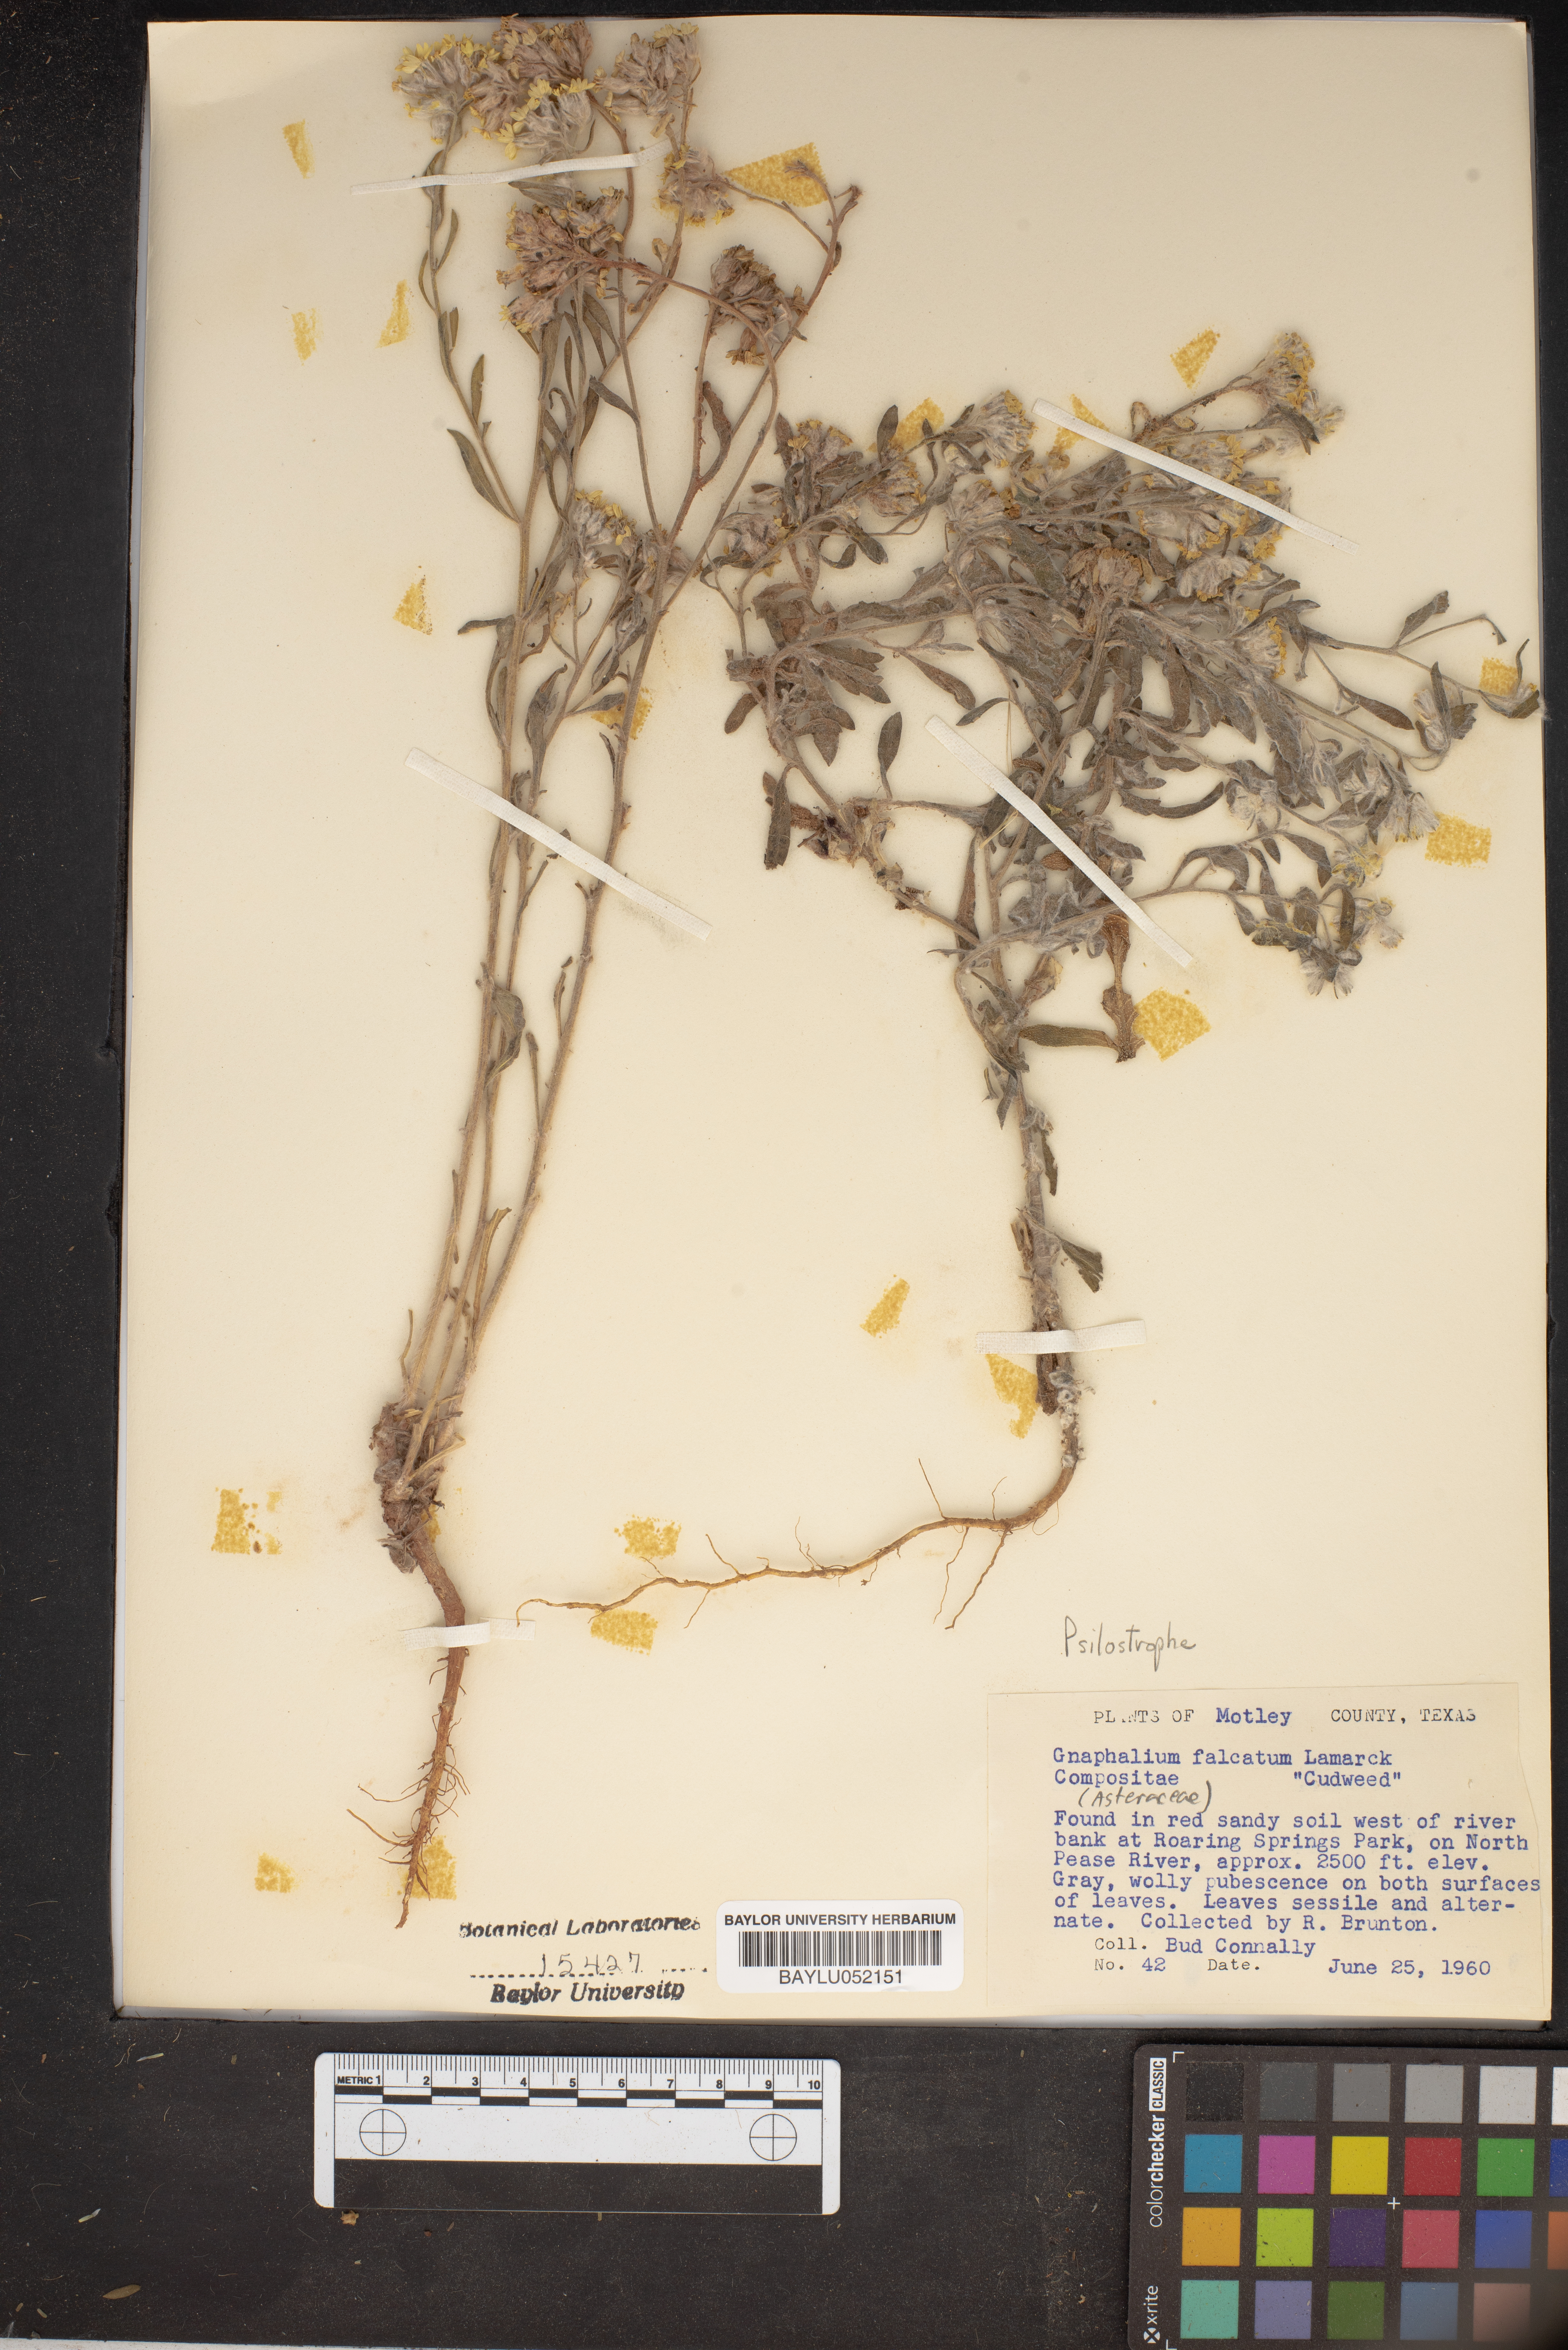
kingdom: Plantae
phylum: Tracheophyta
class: Magnoliopsida
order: Asterales
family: Asteraceae
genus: Gamochaeta
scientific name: Gamochaeta falcata
